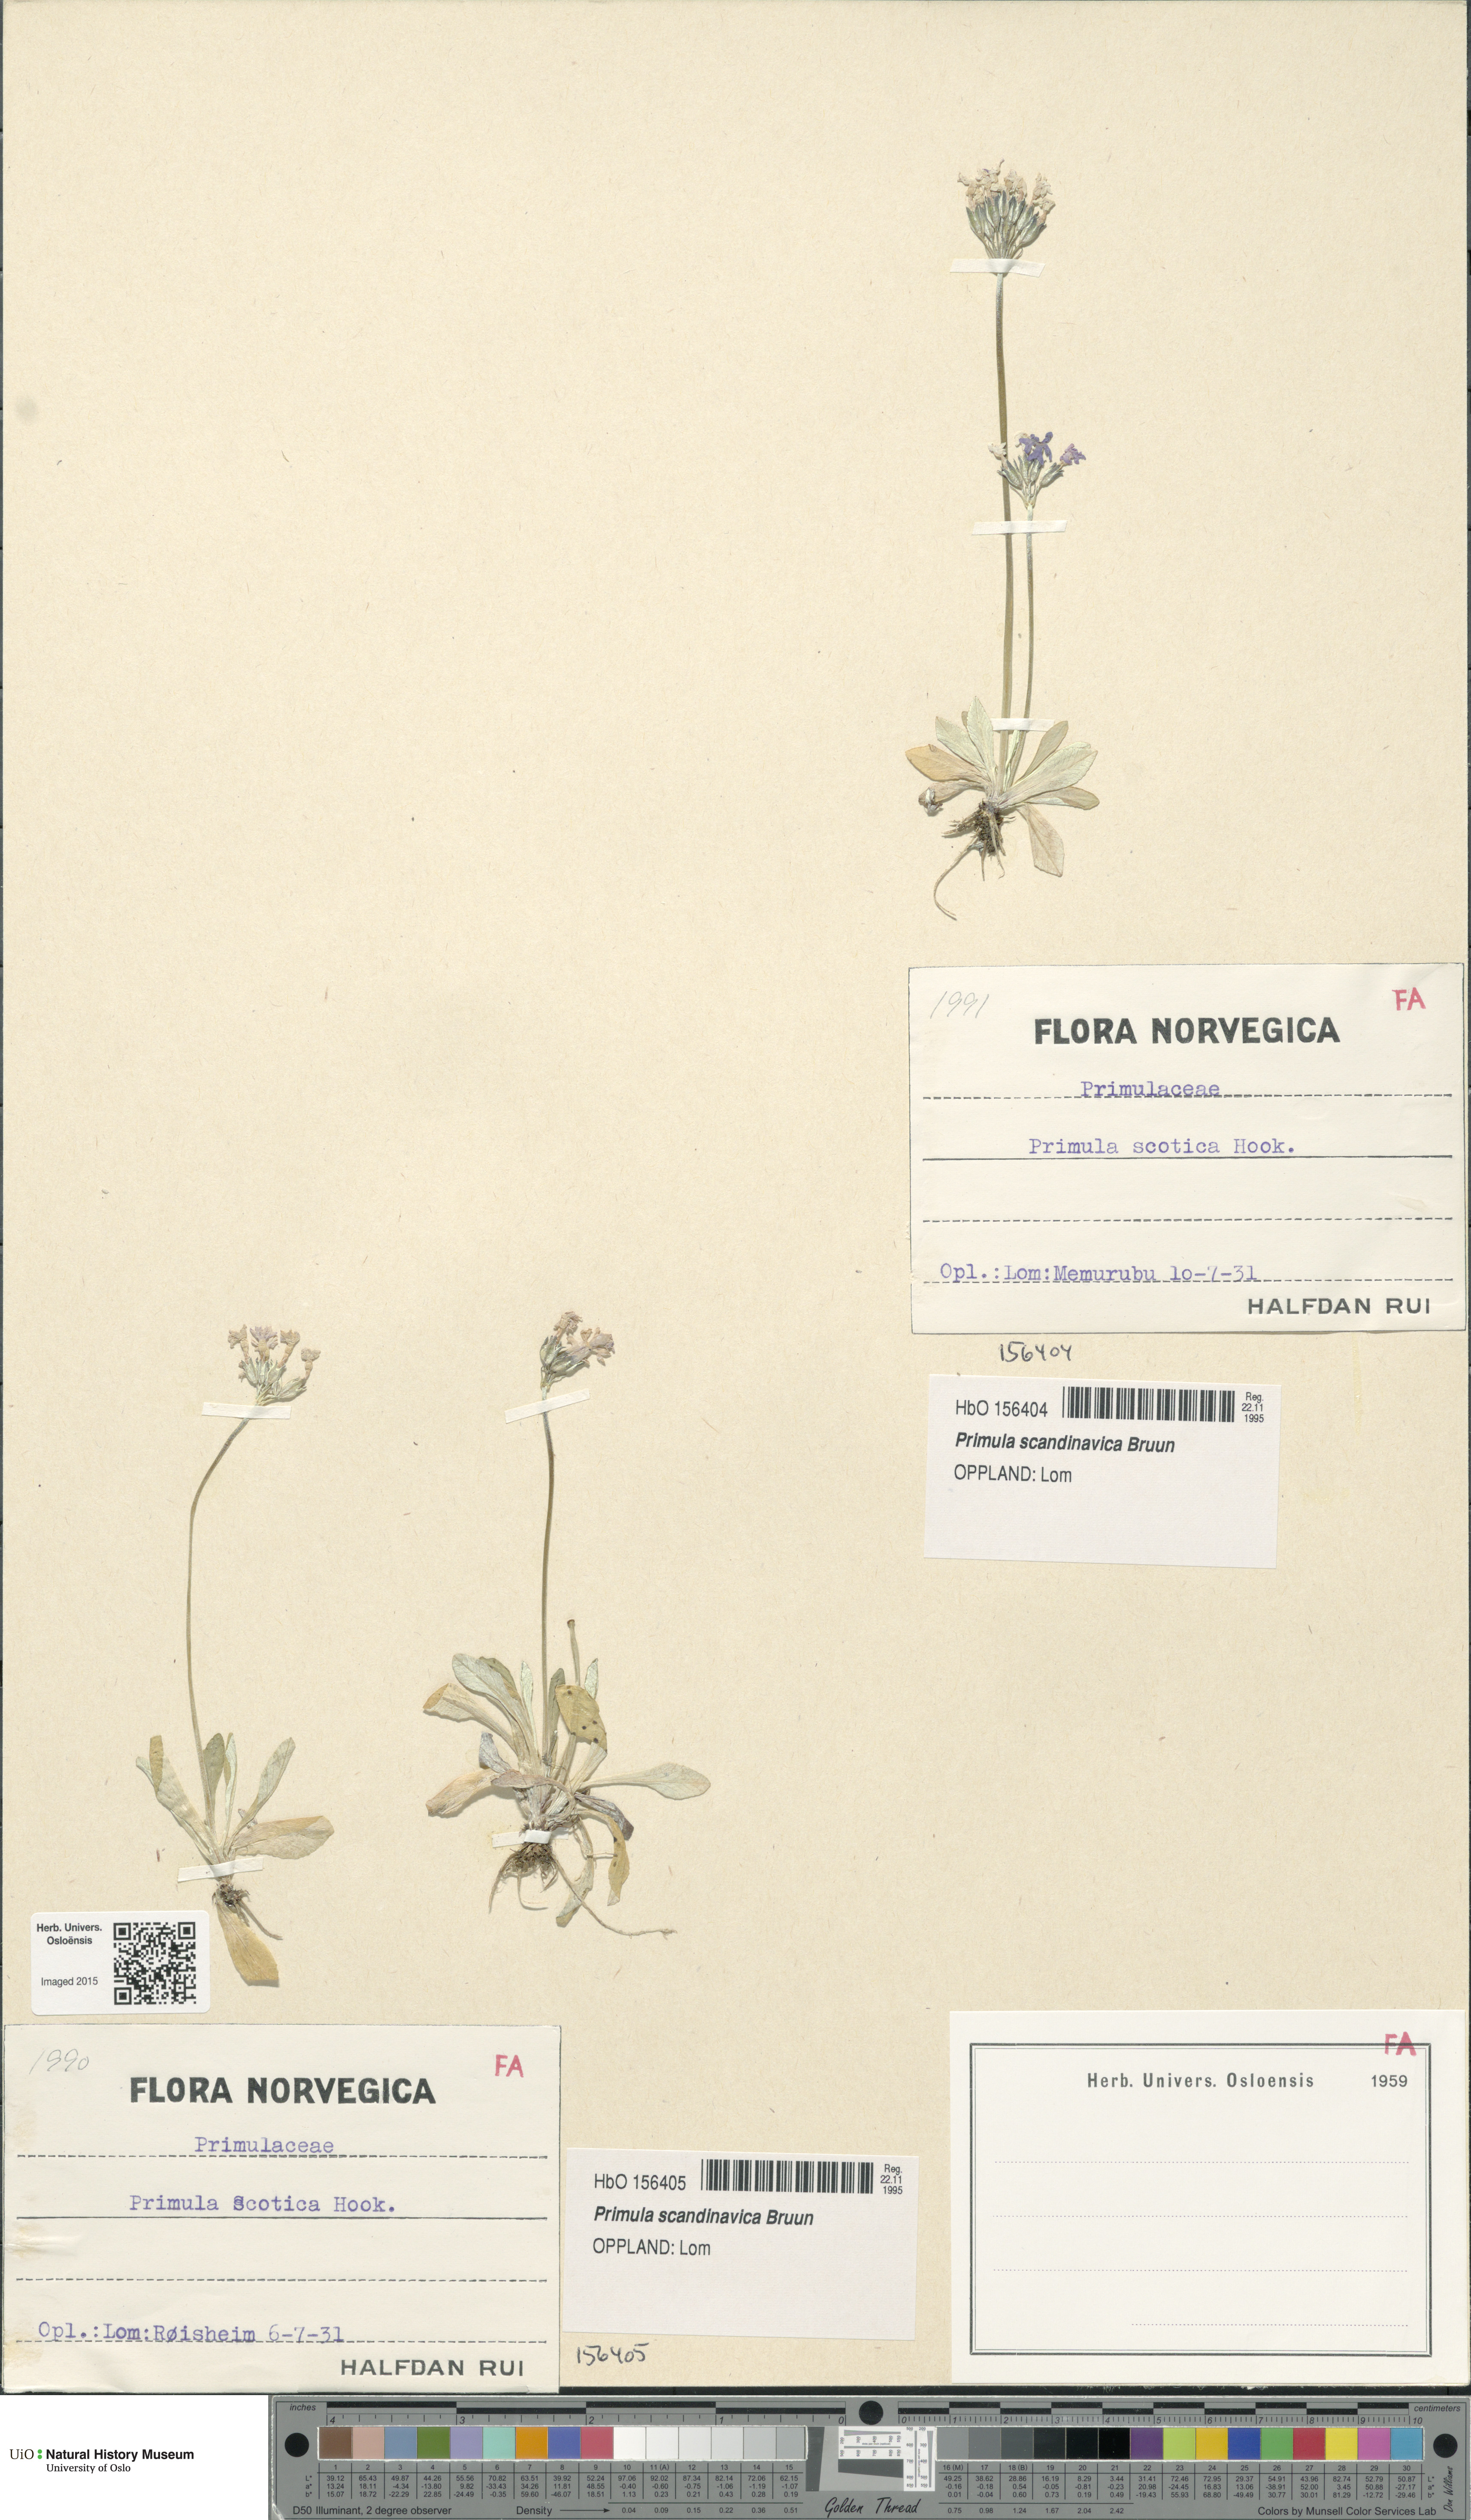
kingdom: Plantae
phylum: Tracheophyta
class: Magnoliopsida
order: Ericales
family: Primulaceae
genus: Primula
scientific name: Primula scandinavica
